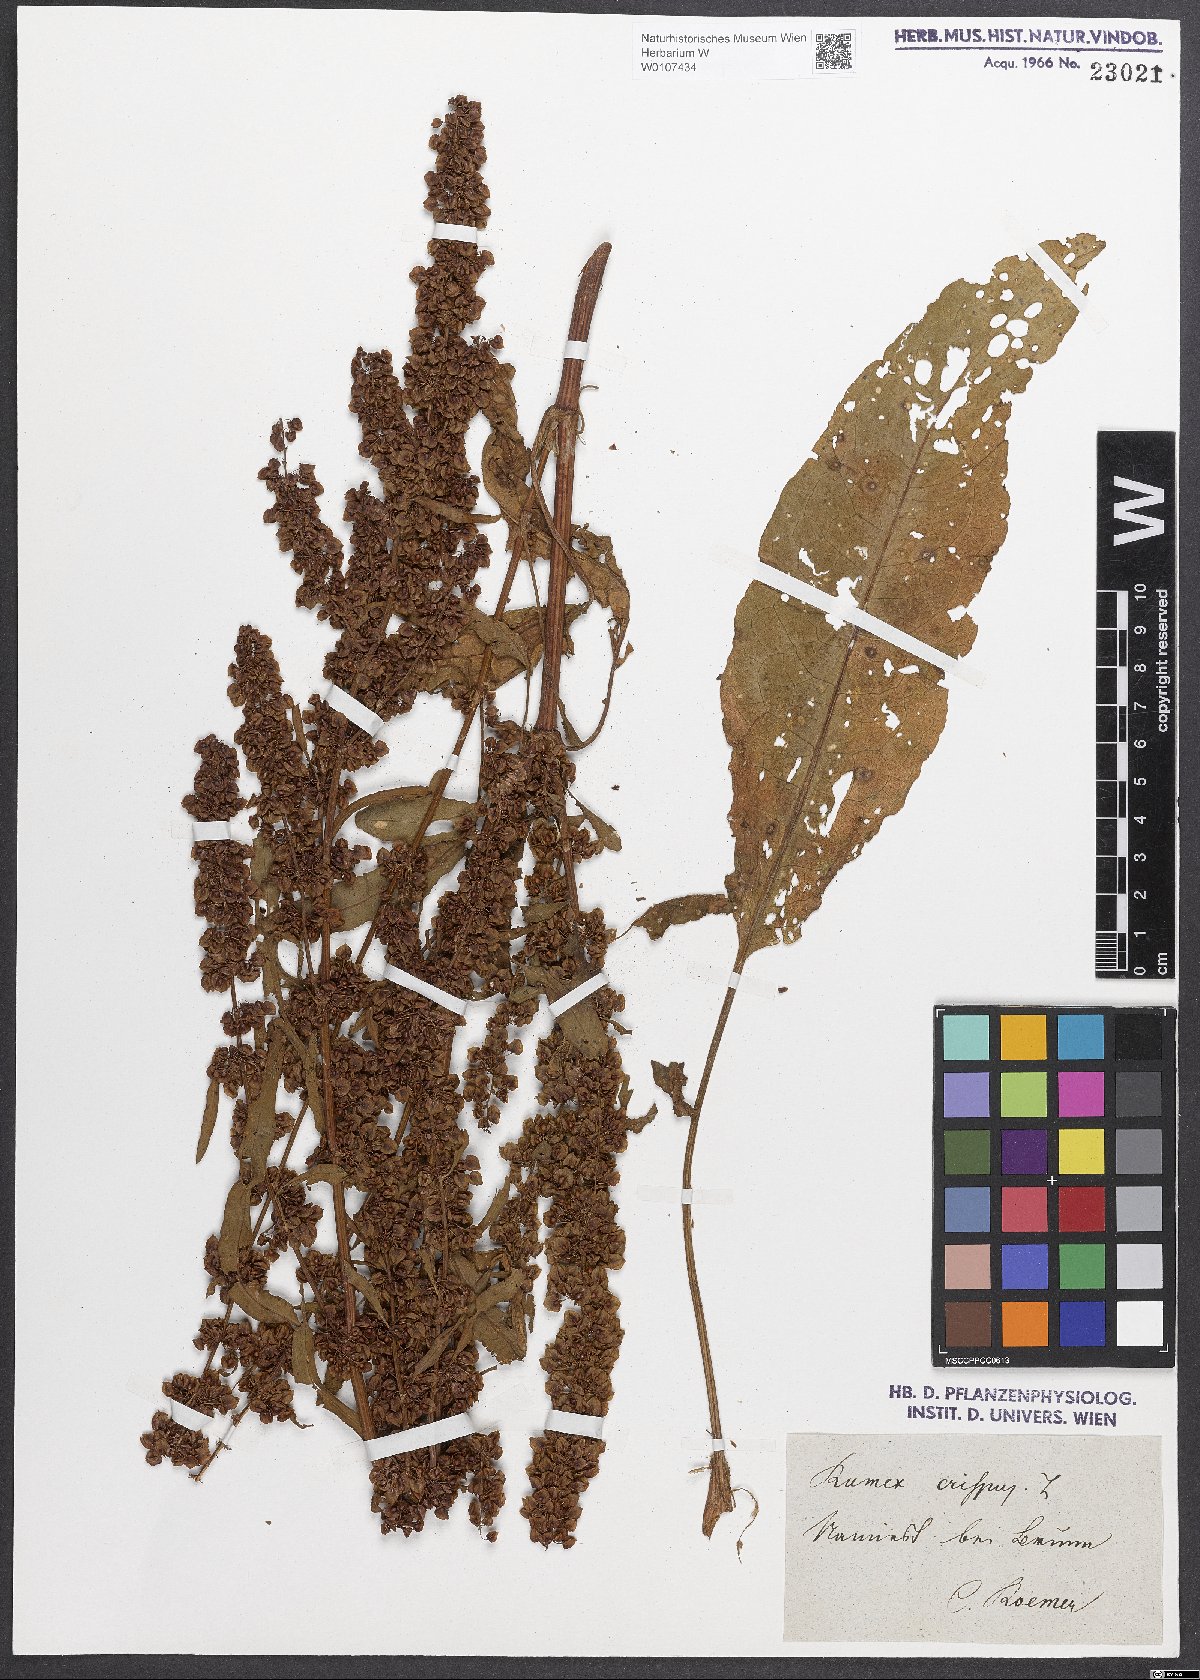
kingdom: Plantae
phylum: Tracheophyta
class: Magnoliopsida
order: Caryophyllales
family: Polygonaceae
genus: Rumex
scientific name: Rumex crispus
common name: Curled dock
